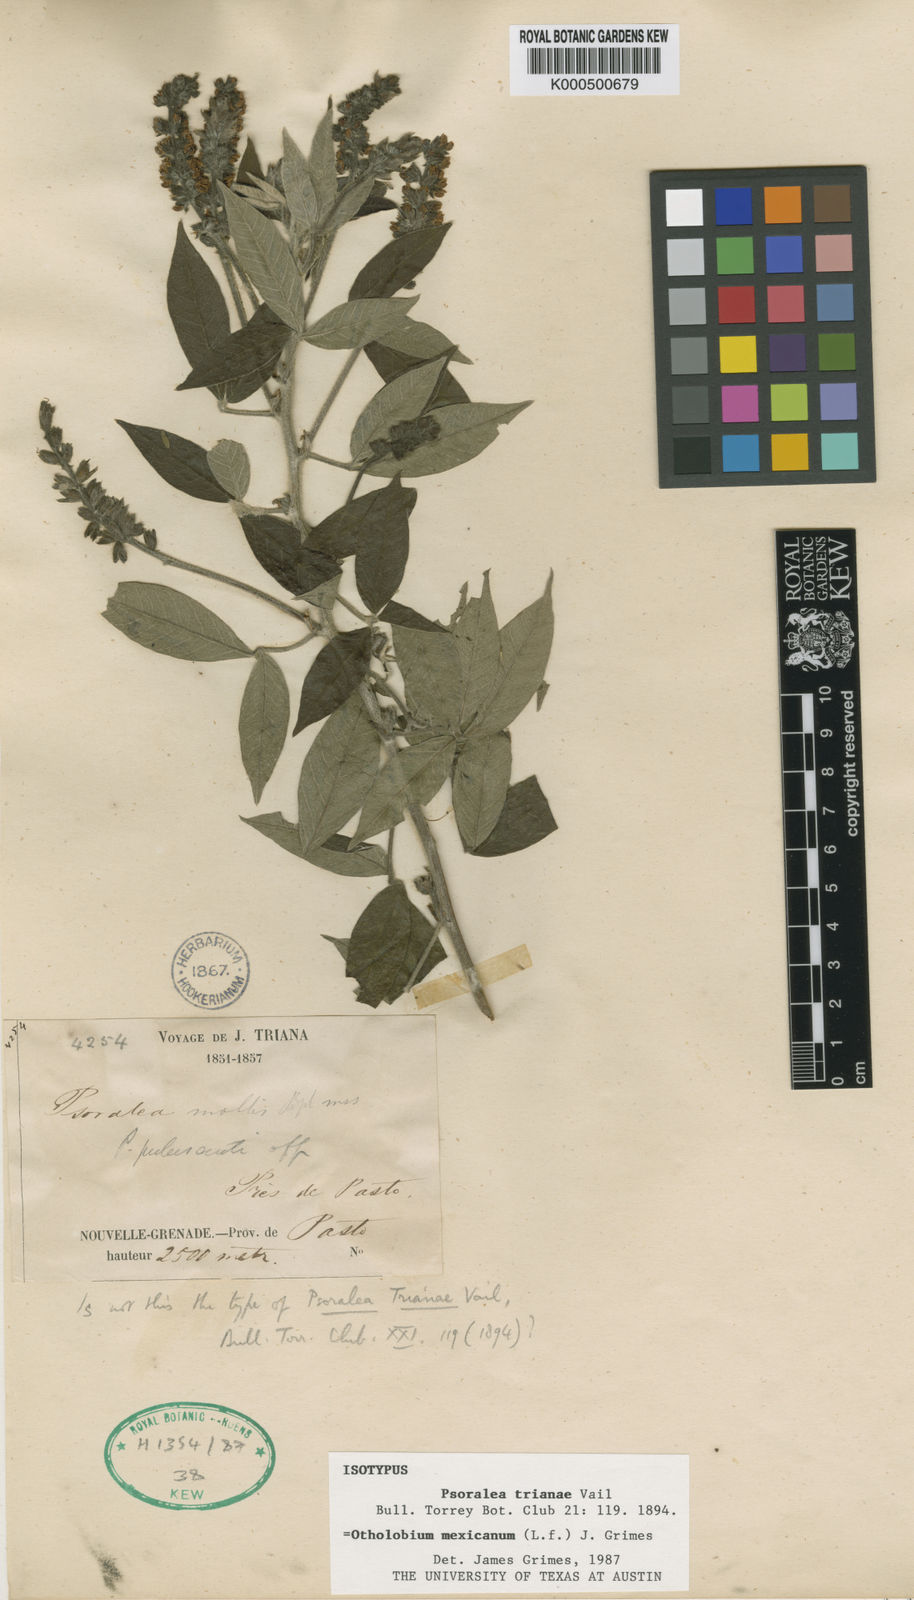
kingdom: Plantae
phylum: Tracheophyta
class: Magnoliopsida
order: Fabales
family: Fabaceae
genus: Psoralea
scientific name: Psoralea Otholobium mexicanum
